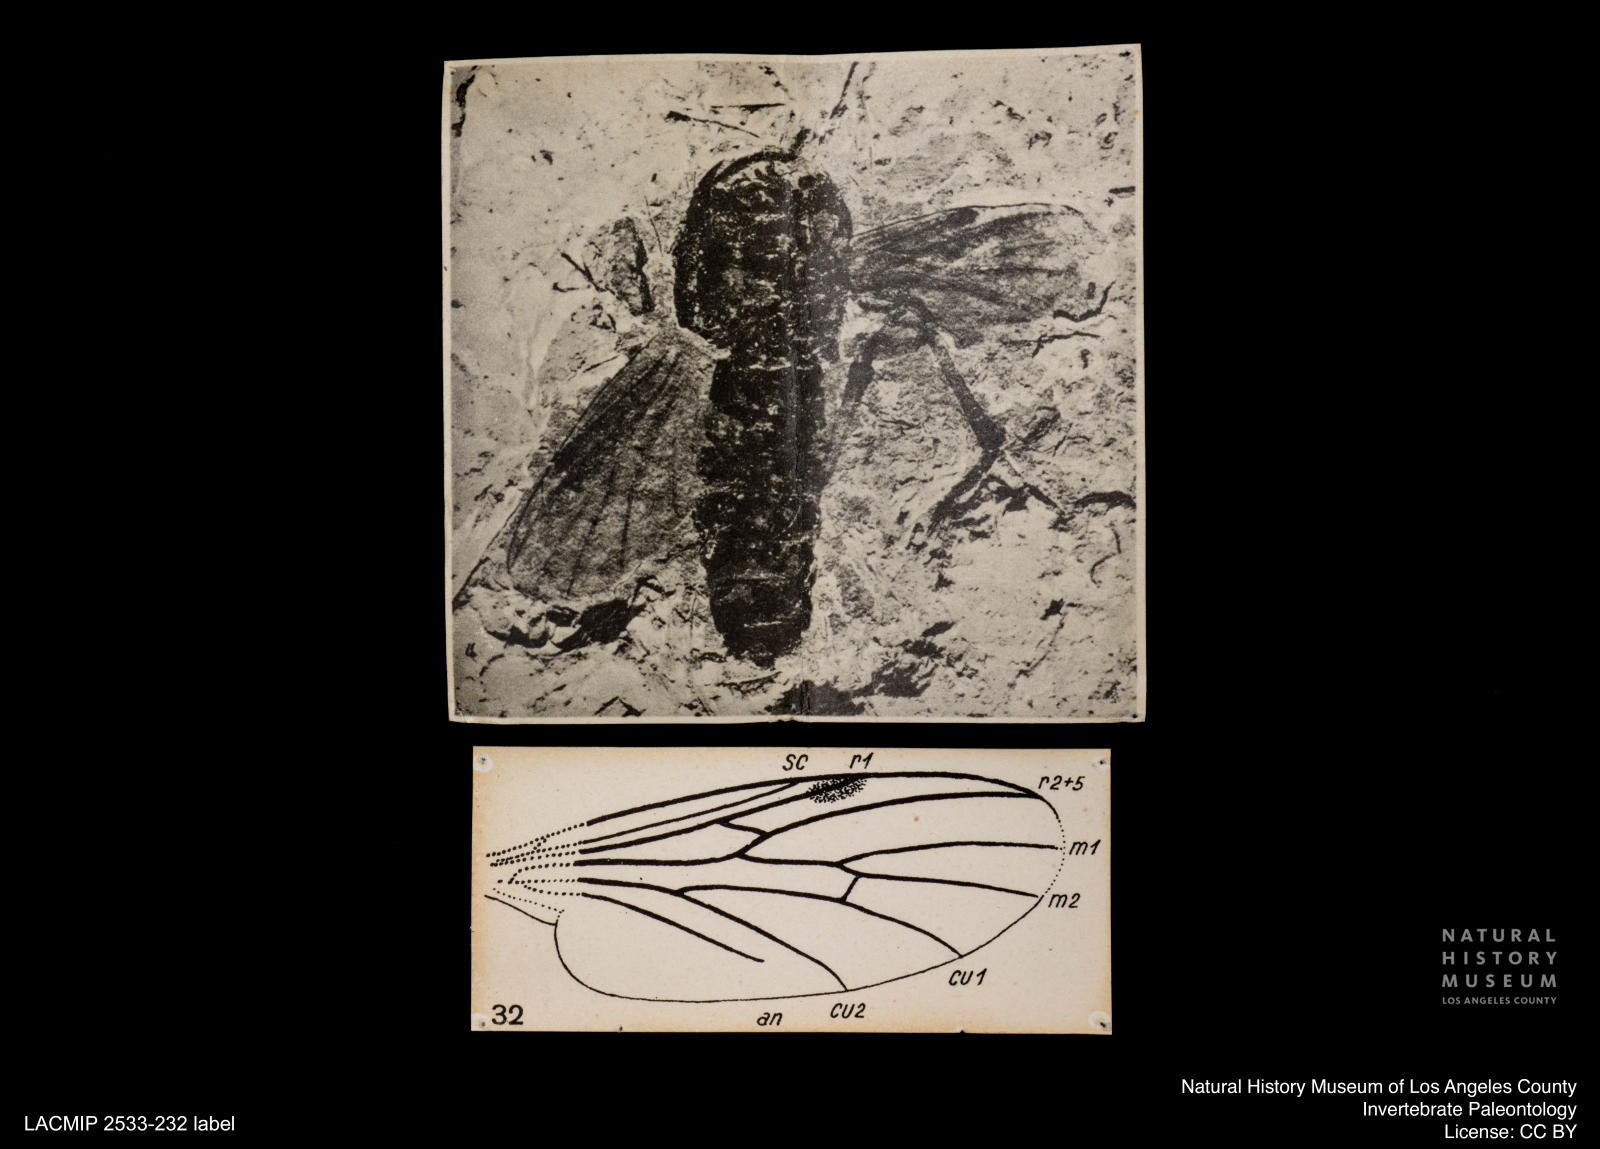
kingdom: Animalia
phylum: Arthropoda
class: Insecta
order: Diptera
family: Bibionidae
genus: Bibio
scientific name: Bibio aerosus
